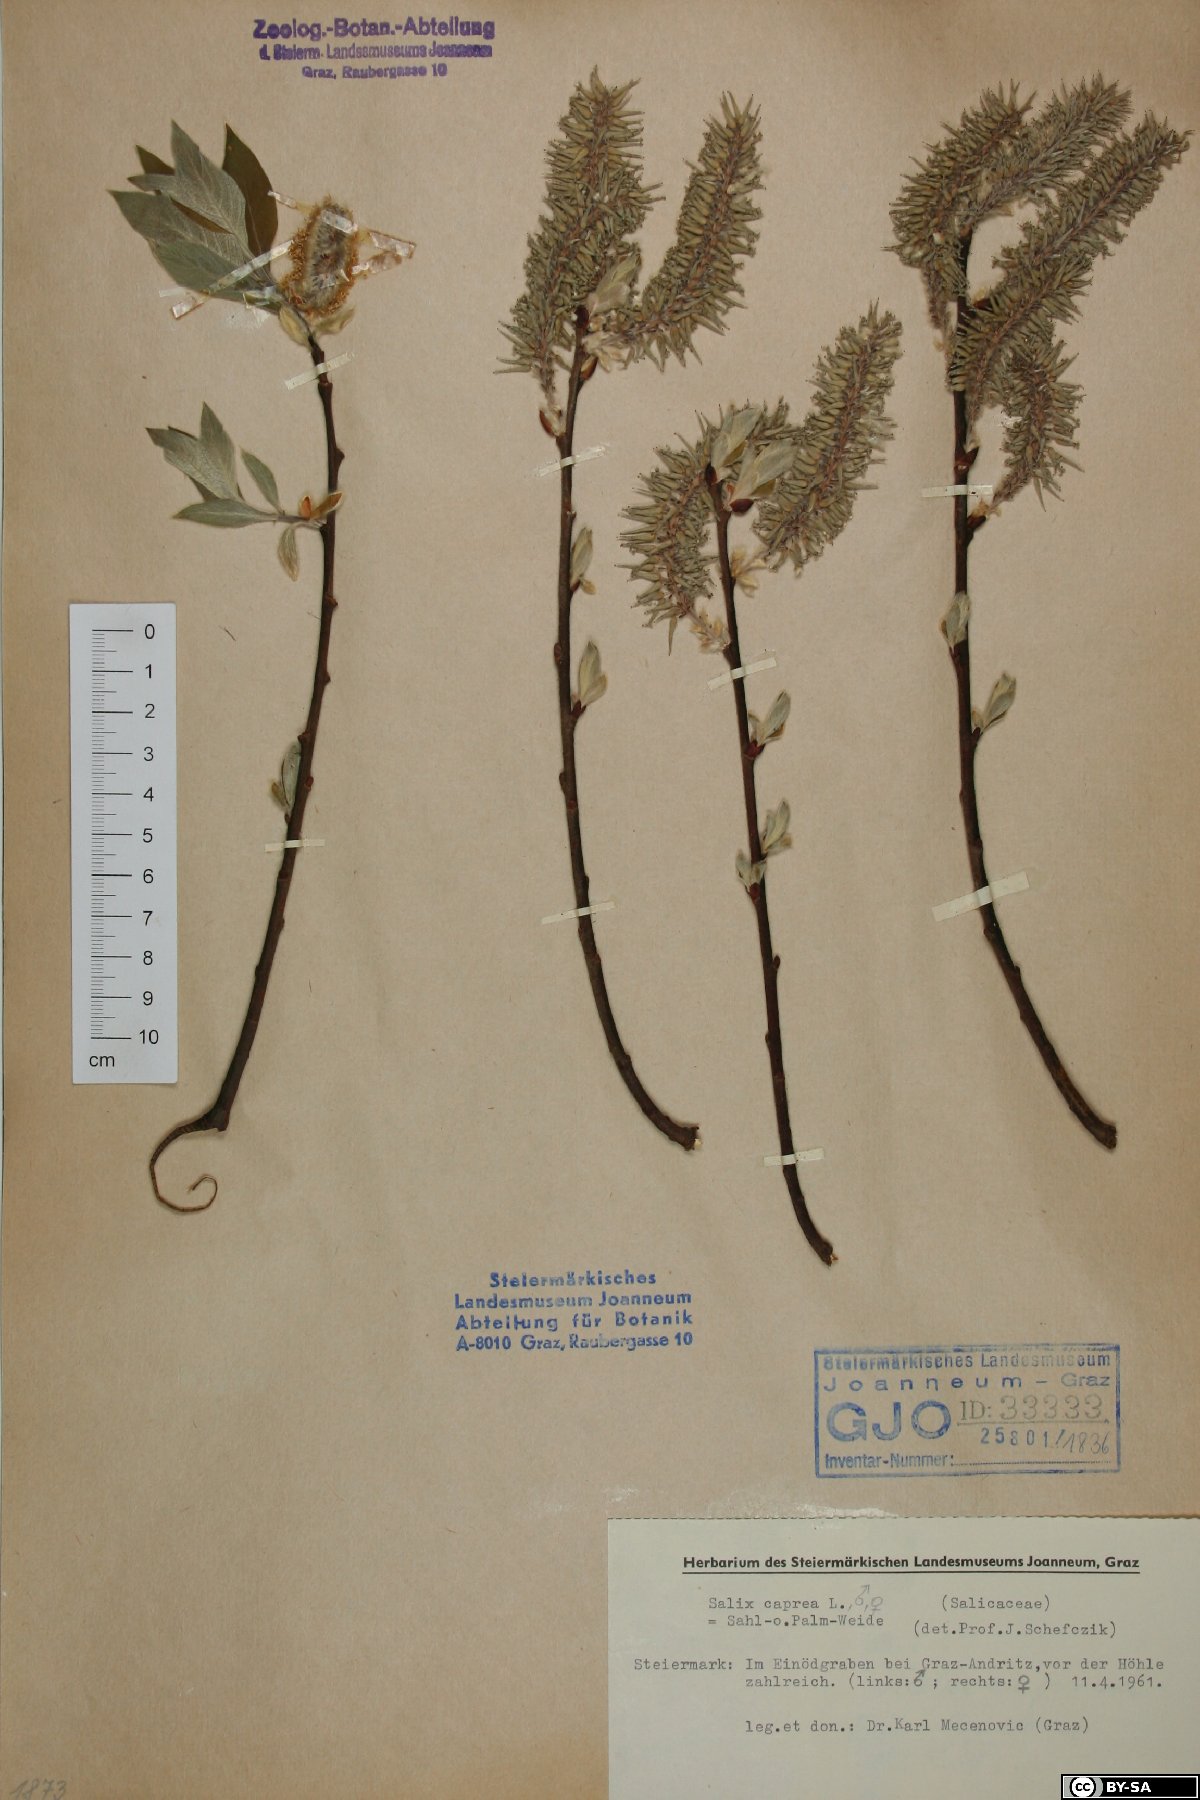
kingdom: Plantae
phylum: Tracheophyta
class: Magnoliopsida
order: Malpighiales
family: Salicaceae
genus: Salix
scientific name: Salix caprea
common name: Goat willow
